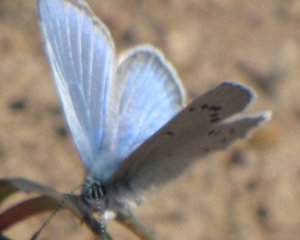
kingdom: Animalia
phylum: Arthropoda
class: Insecta
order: Lepidoptera
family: Lycaenidae
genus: Glaucopsyche
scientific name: Glaucopsyche lygdamus
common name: Silvery Blue
